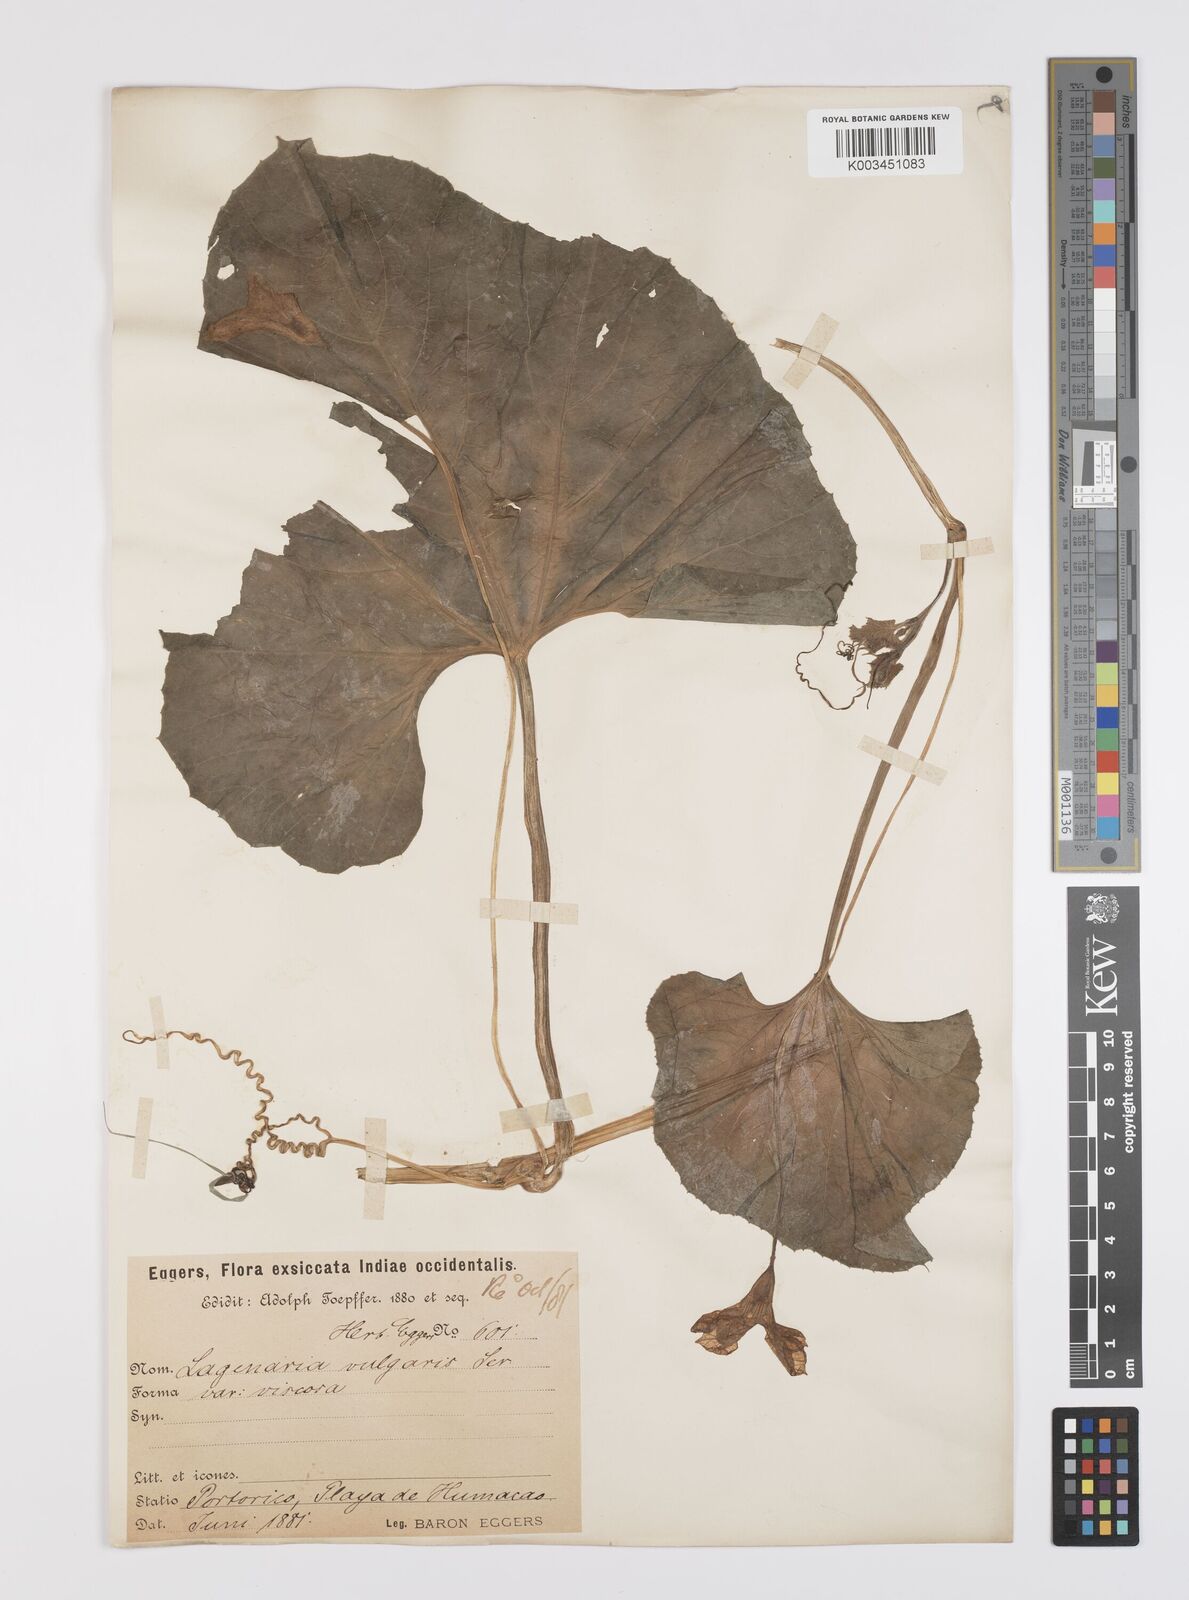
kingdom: Plantae
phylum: Tracheophyta
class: Magnoliopsida
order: Cucurbitales
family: Cucurbitaceae
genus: Lagenaria
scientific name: Lagenaria siceraria
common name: Bottle gourd
